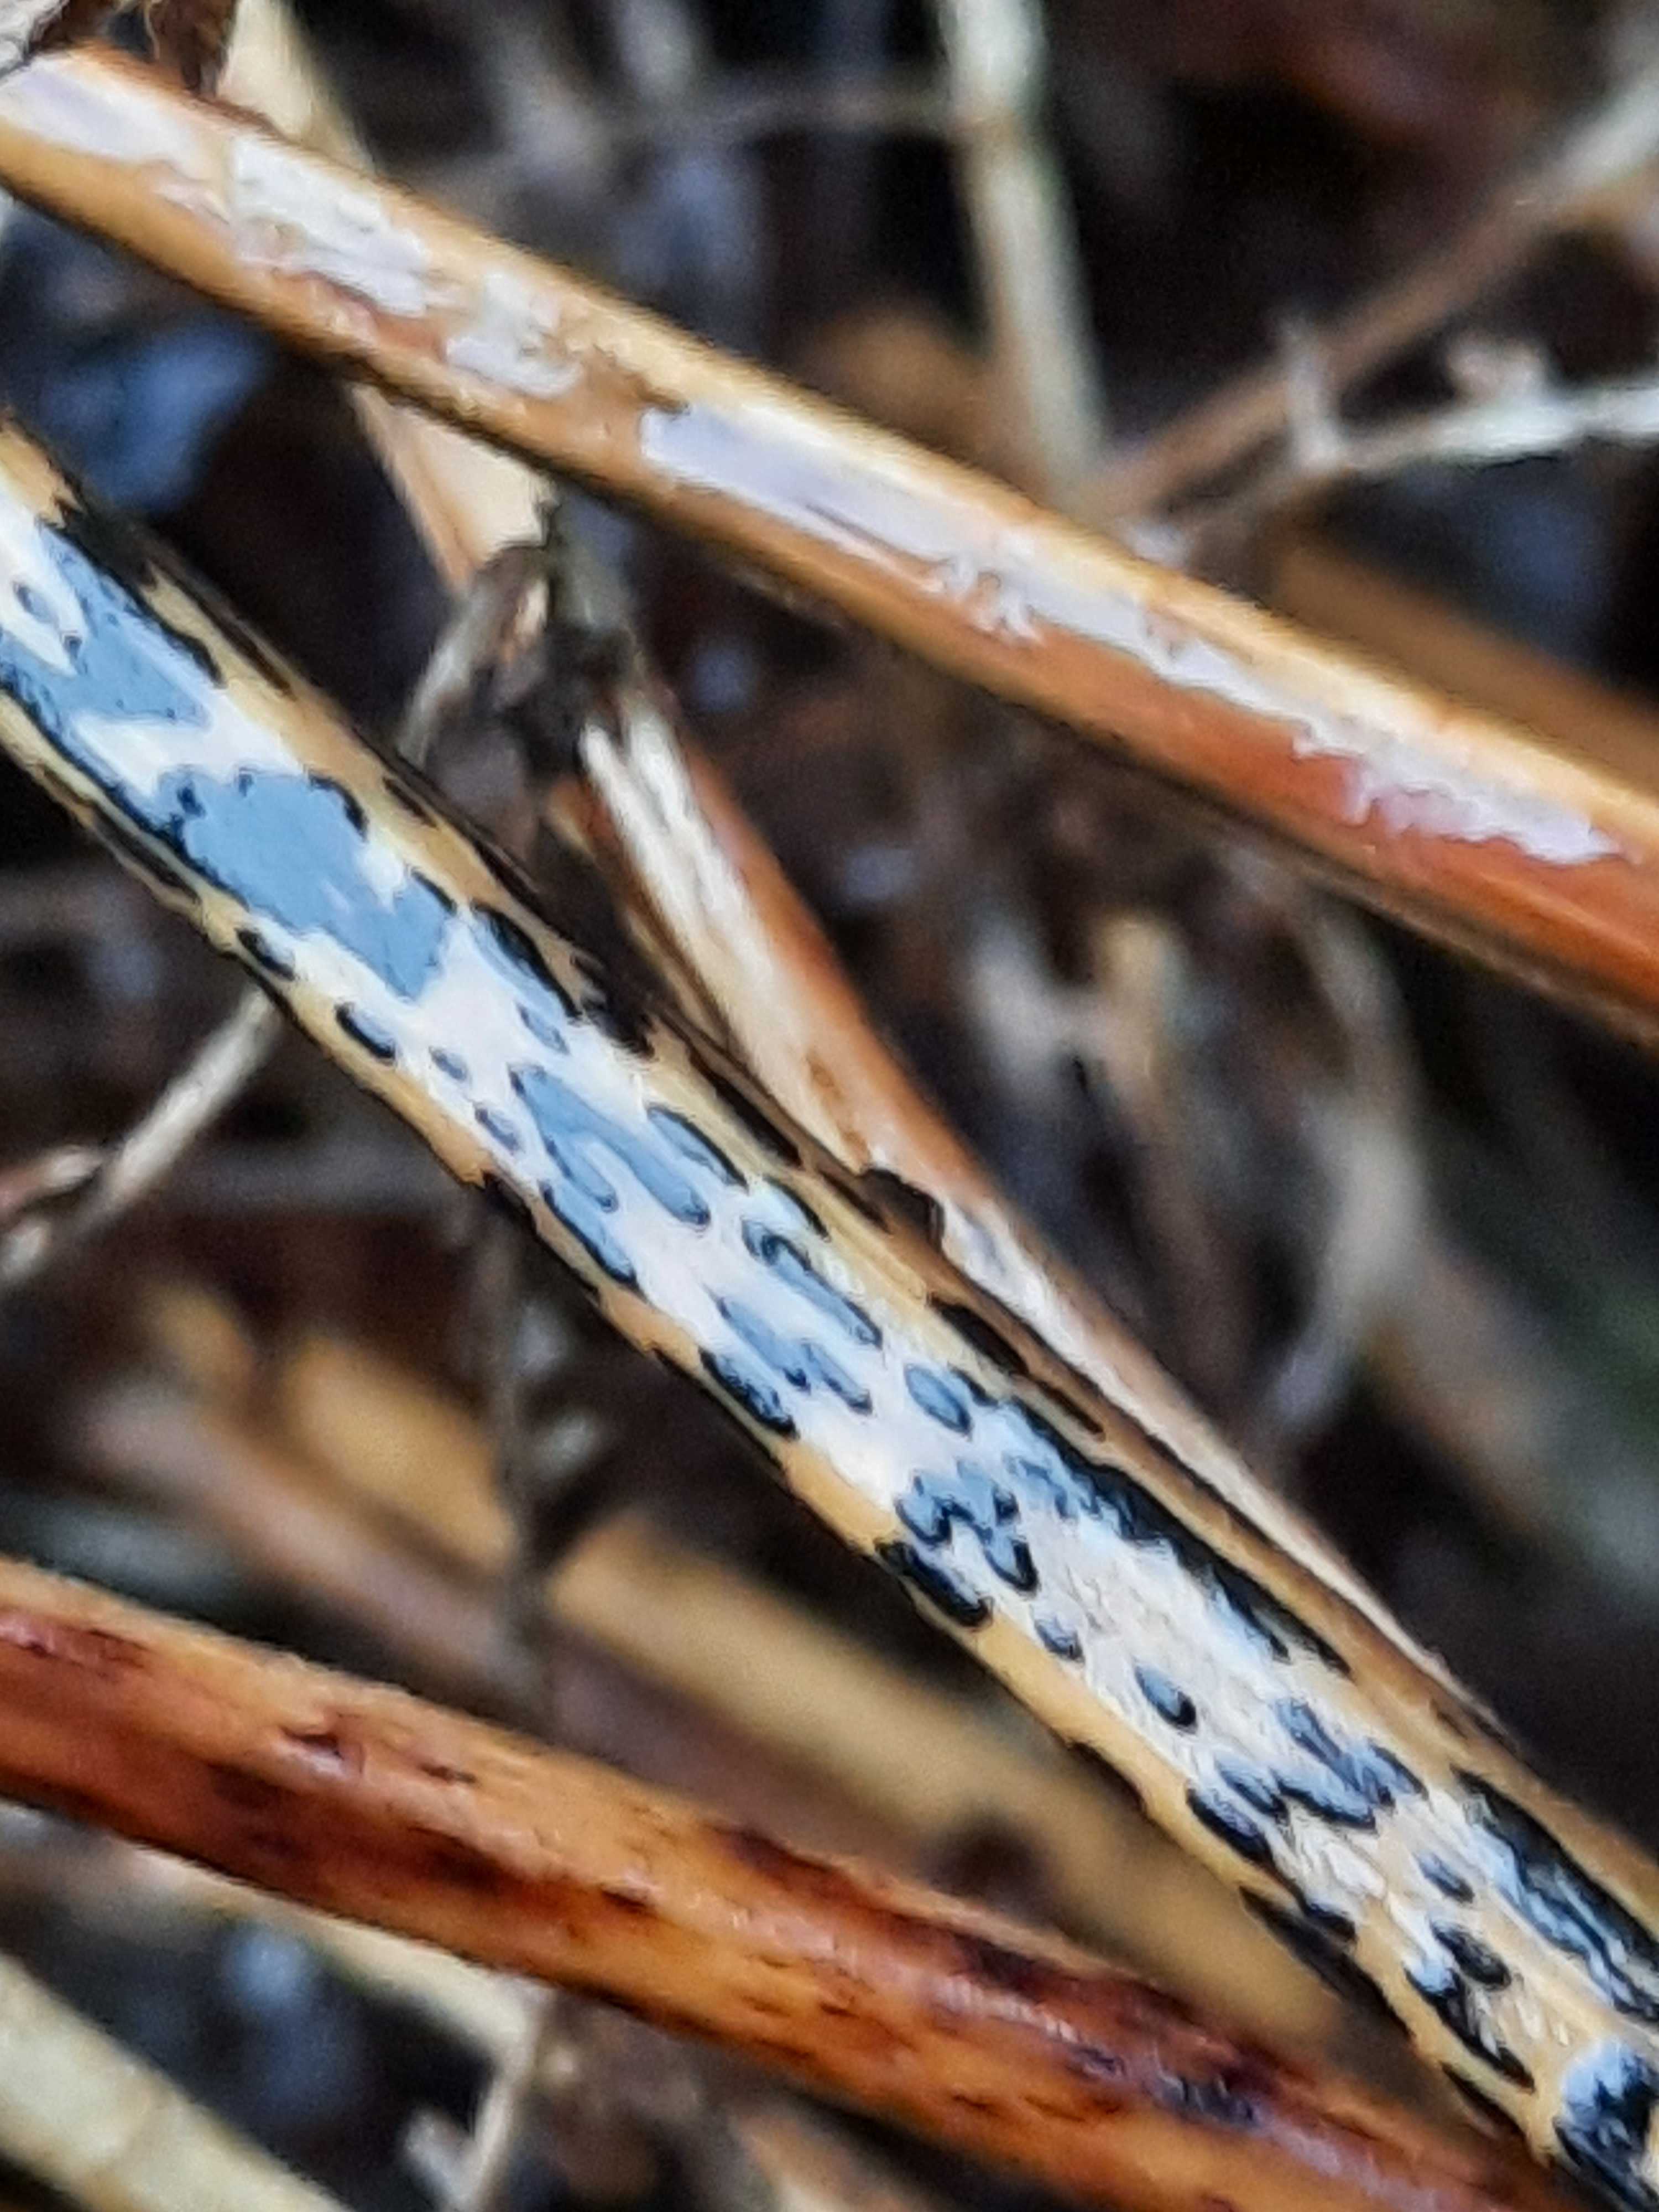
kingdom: Fungi
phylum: Ascomycota
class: Dothideomycetes
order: Pleosporales
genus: Rhopographus
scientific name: Rhopographus filicinus
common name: Bracken map
